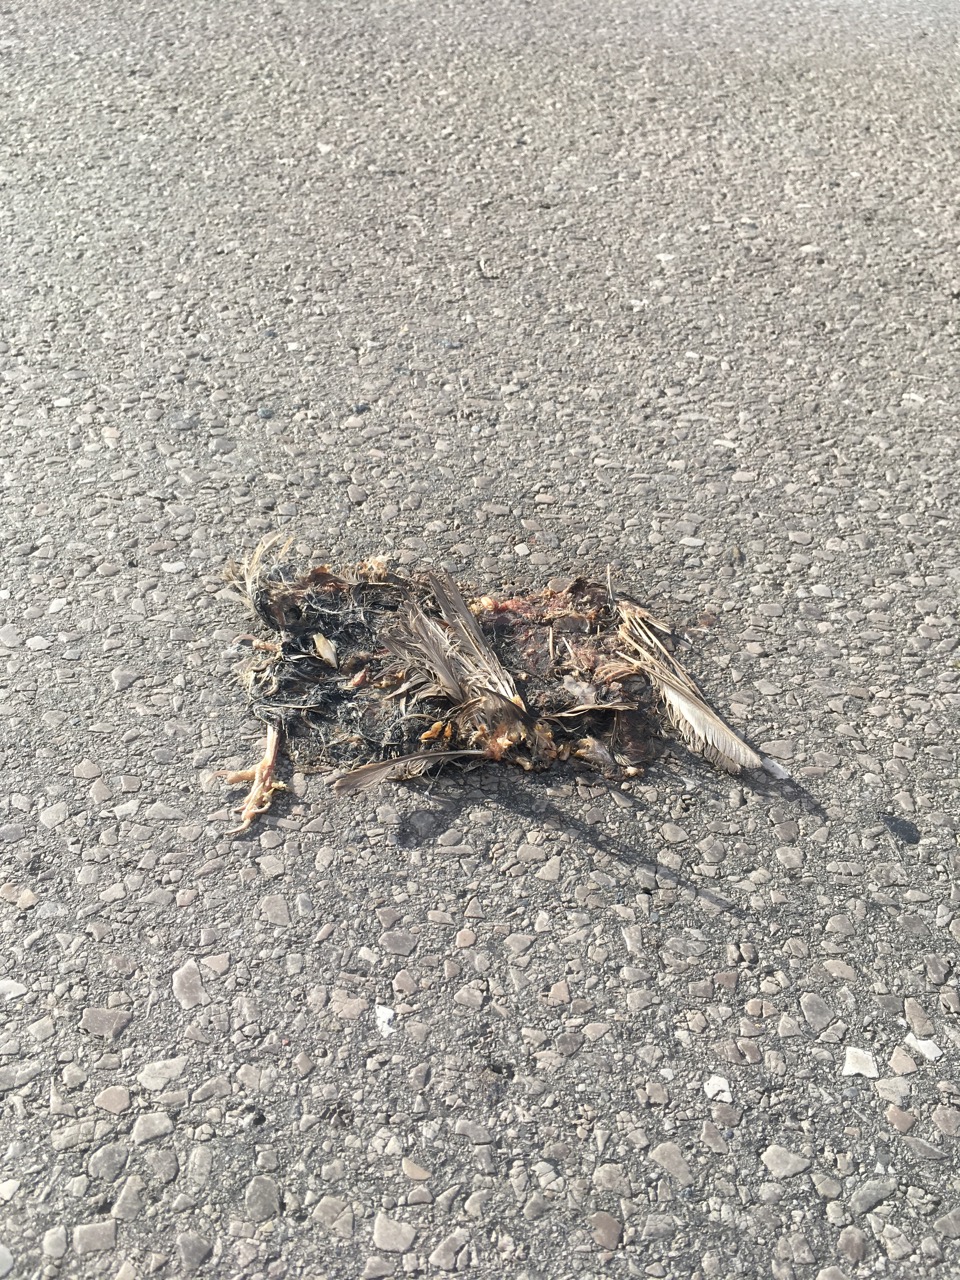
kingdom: Animalia
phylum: Chordata
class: Aves
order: Passeriformes
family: Passeridae
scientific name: Passeridae
